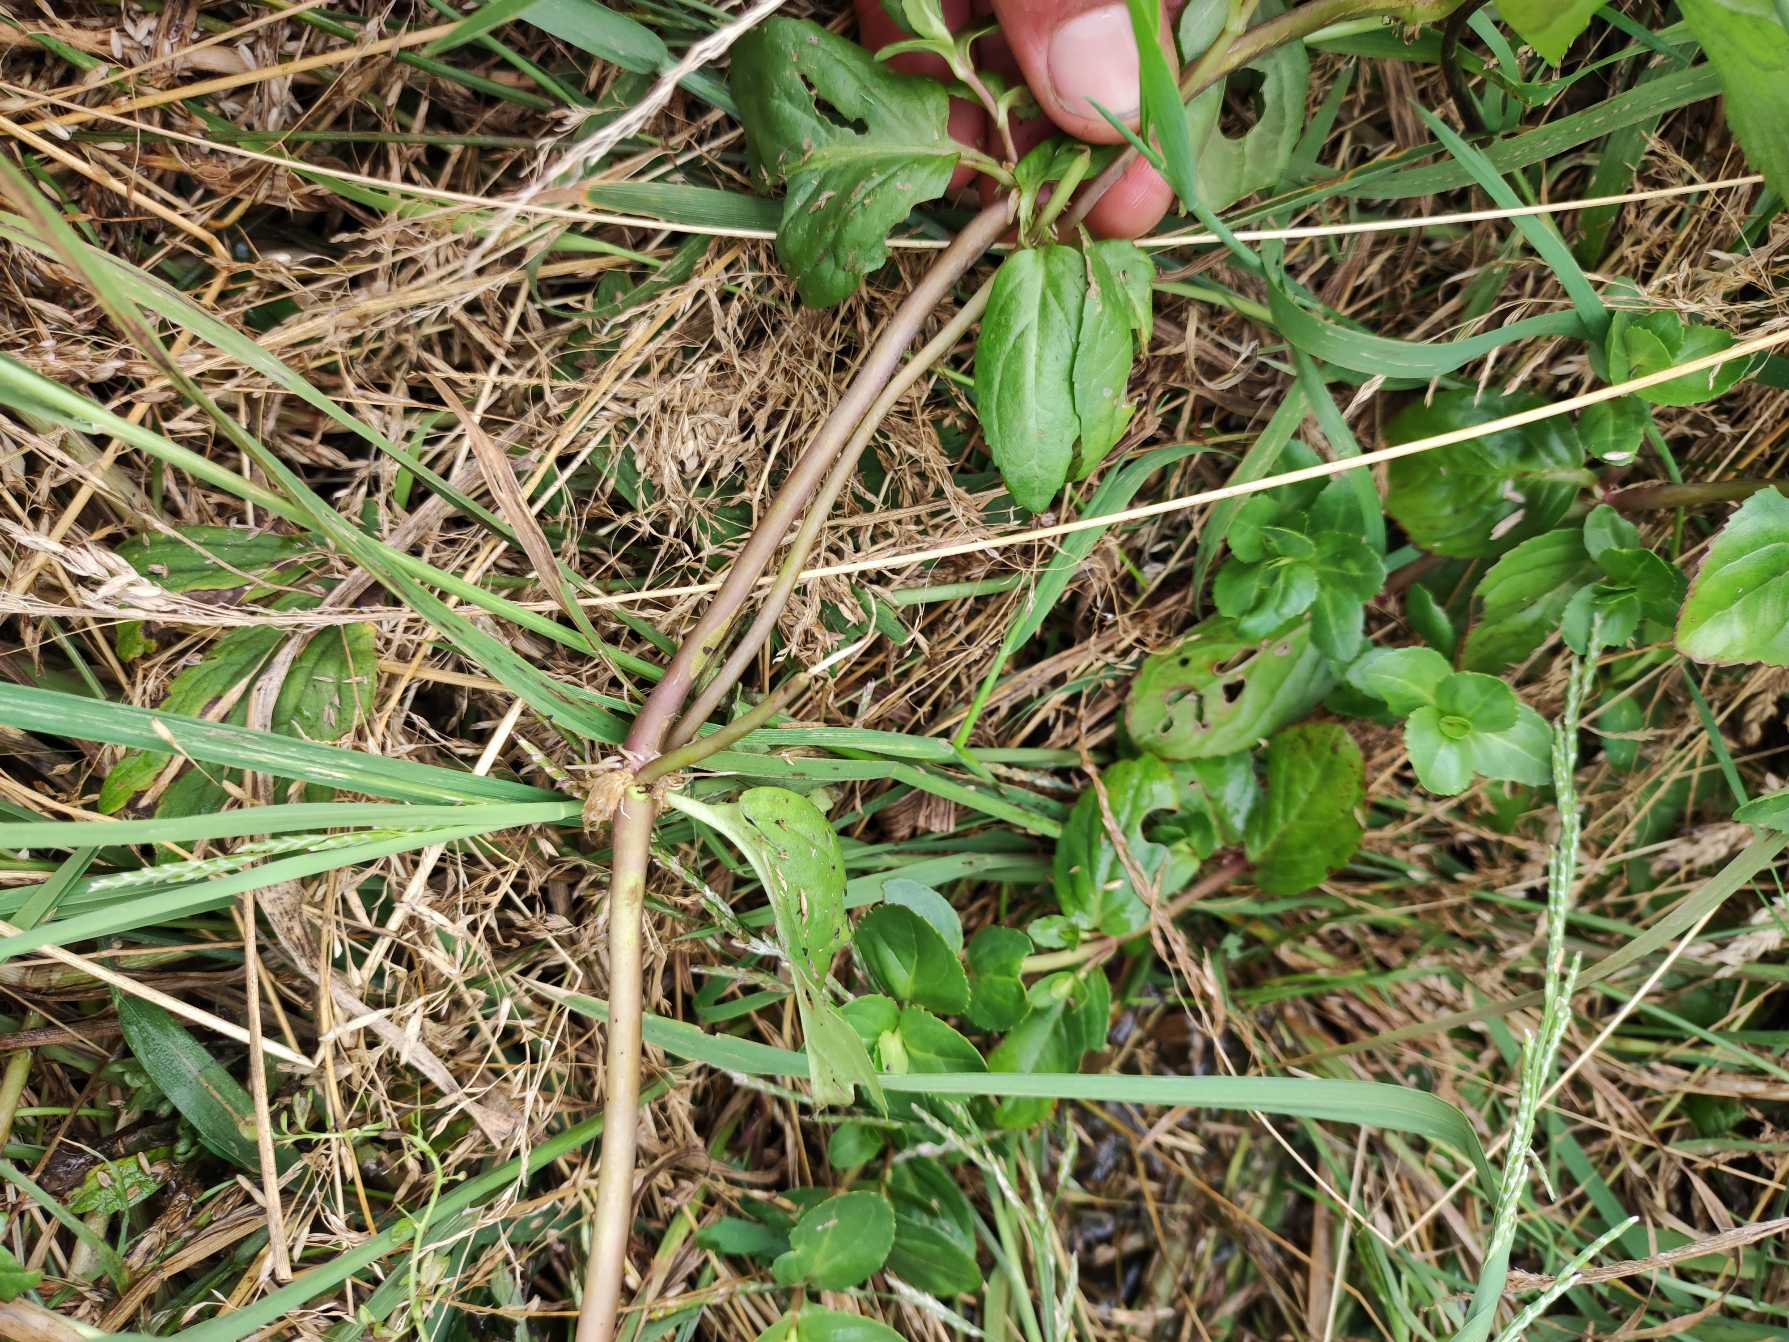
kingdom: Plantae
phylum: Tracheophyta
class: Magnoliopsida
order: Lamiales
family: Plantaginaceae
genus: Veronica
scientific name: Veronica beccabunga
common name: Tykbladet ærenpris
